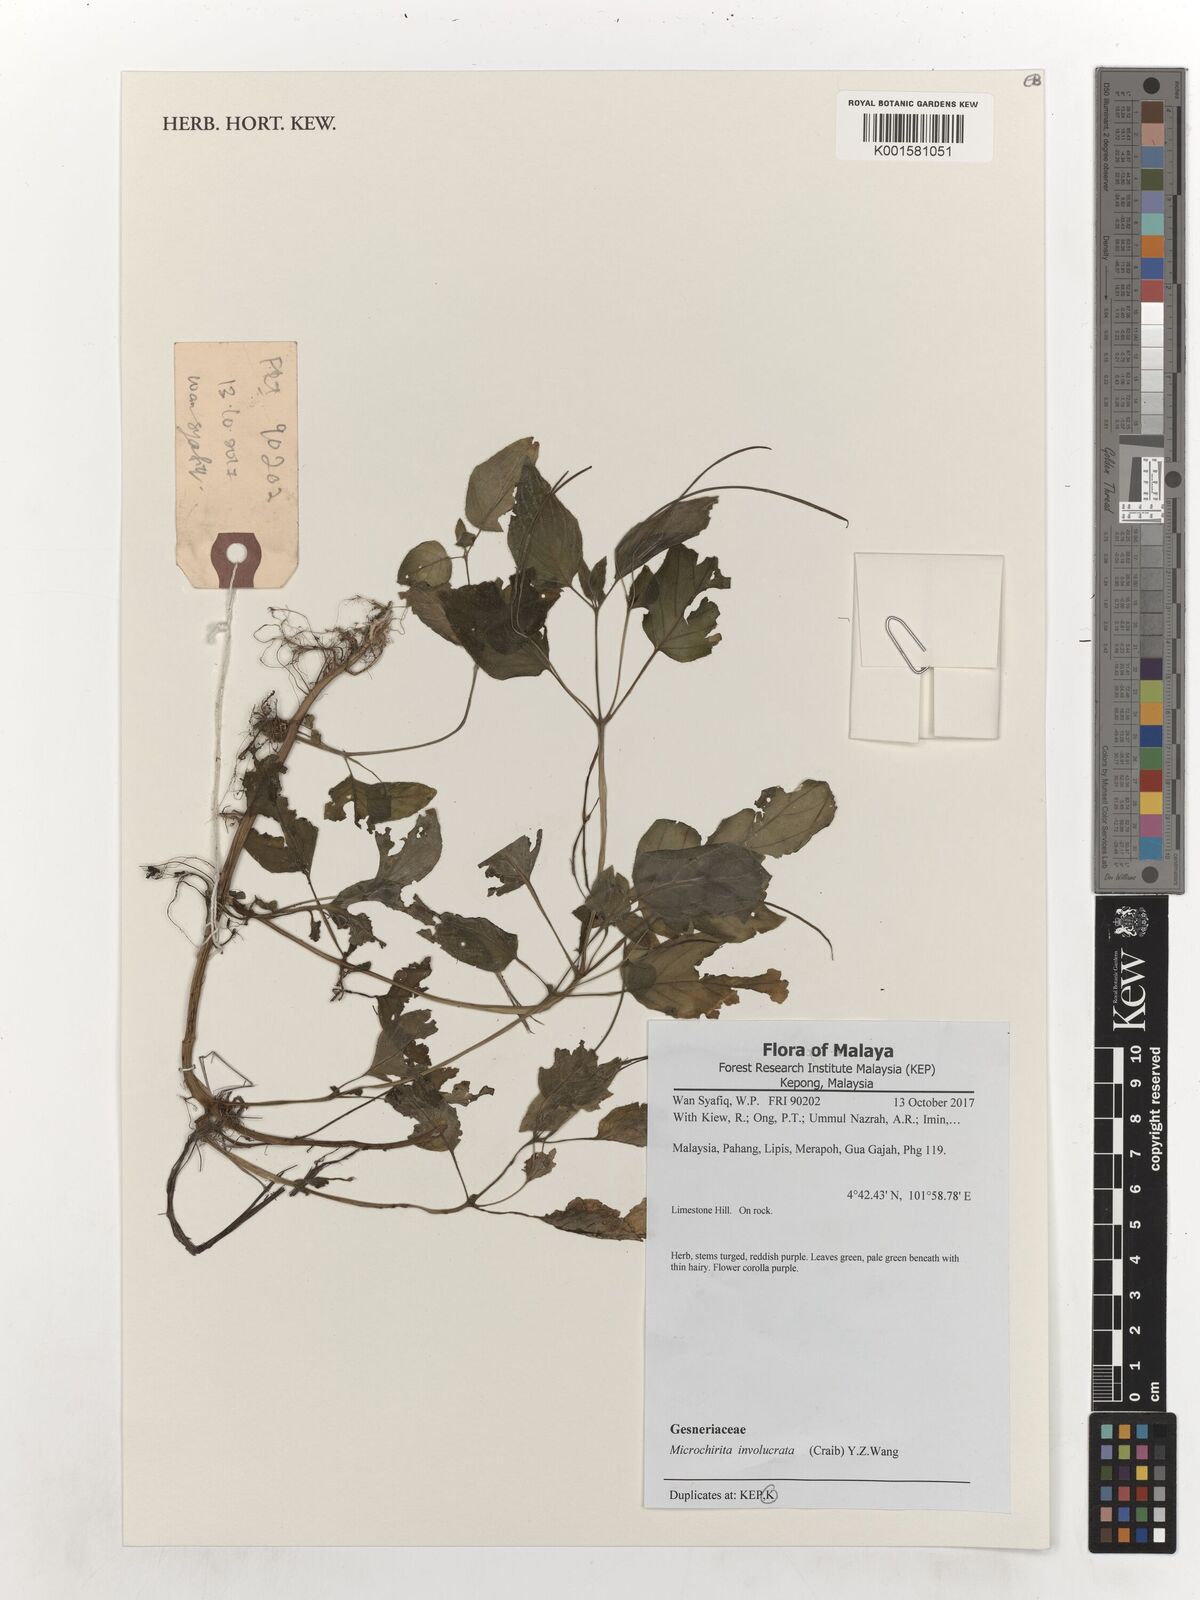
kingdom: Plantae
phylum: Tracheophyta
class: Magnoliopsida
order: Lamiales
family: Gesneriaceae
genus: Microchirita
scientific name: Microchirita involucrata
